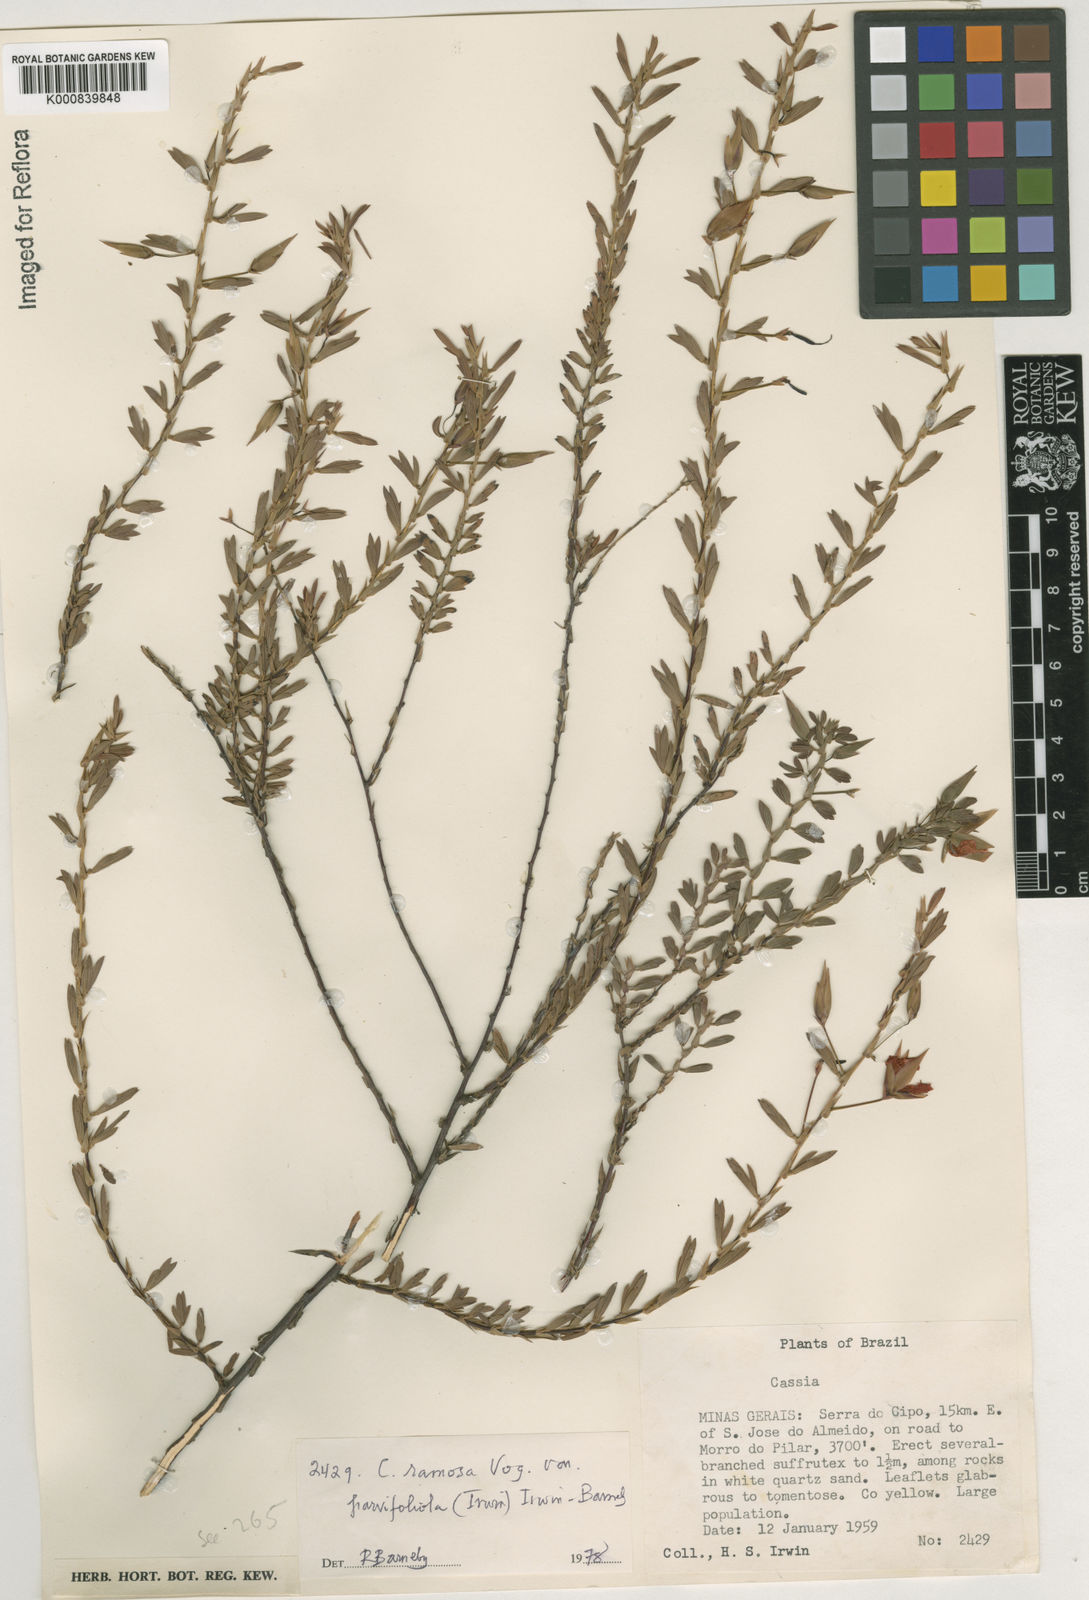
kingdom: Plantae
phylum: Tracheophyta
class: Magnoliopsida
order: Fabales
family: Fabaceae
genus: Chamaecrista
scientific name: Chamaecrista ramosa
